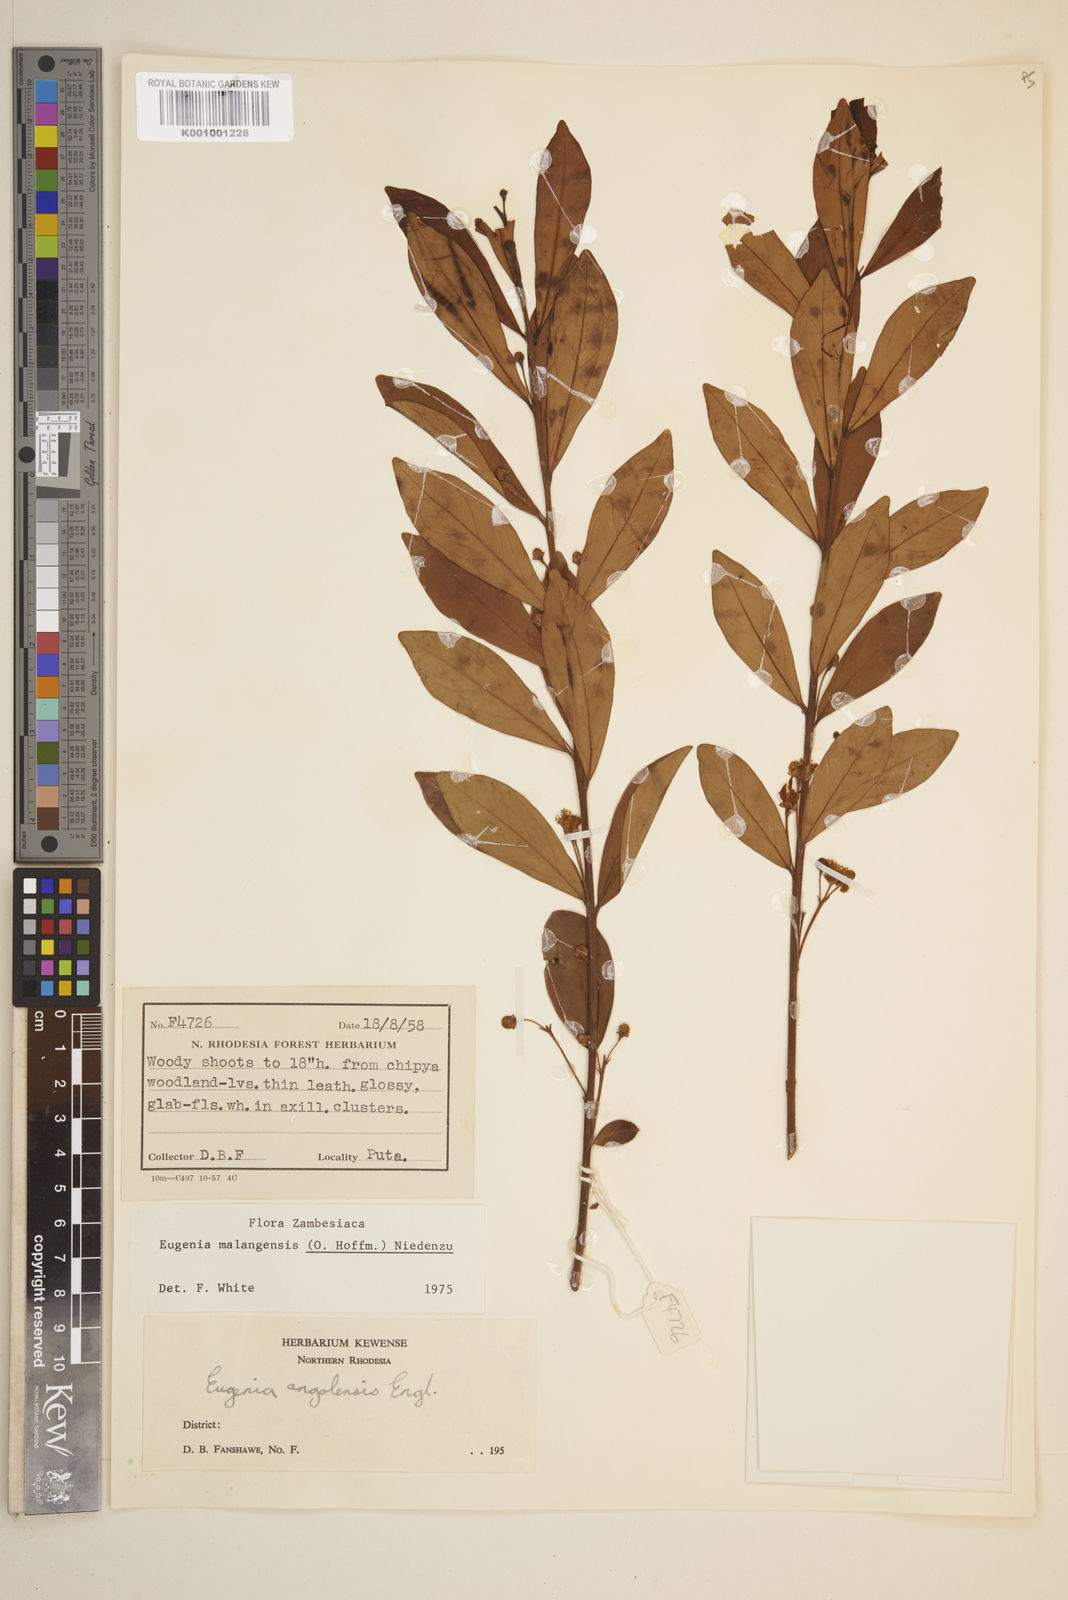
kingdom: Plantae
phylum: Tracheophyta
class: Magnoliopsida
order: Myrtales
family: Myrtaceae
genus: Eugenia
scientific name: Eugenia malangensis
